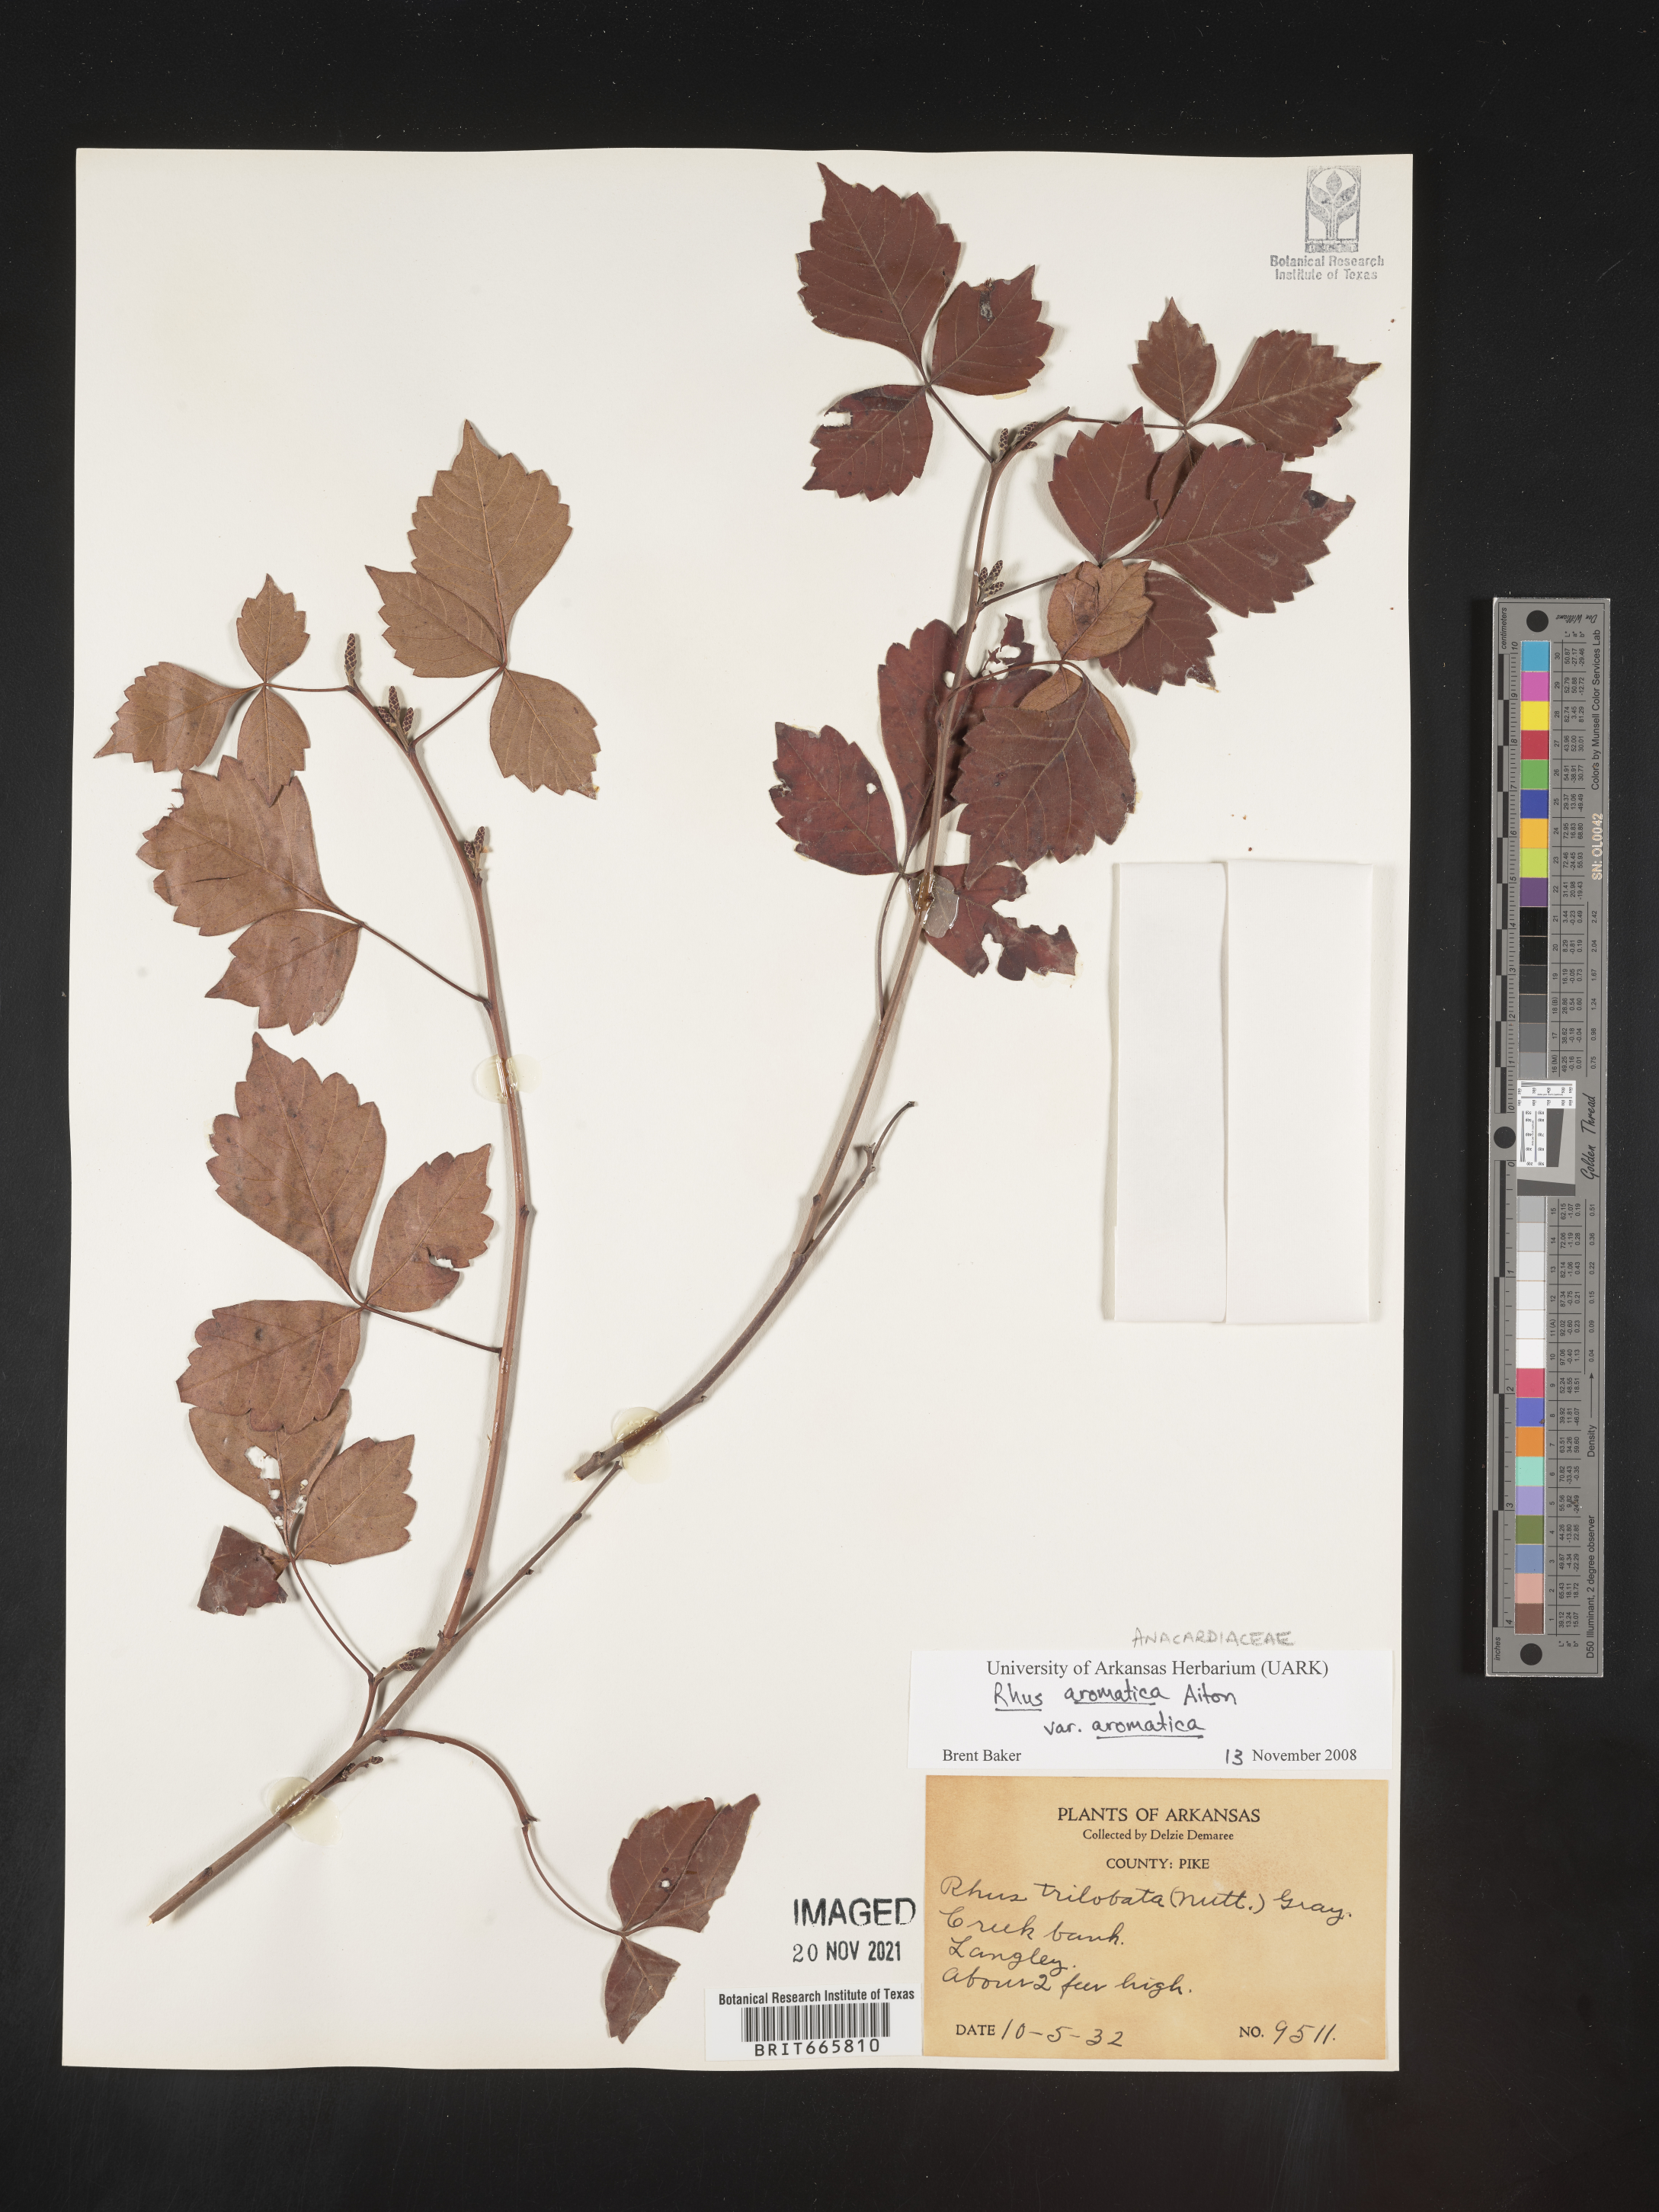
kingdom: Plantae
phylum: Tracheophyta
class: Magnoliopsida
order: Sapindales
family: Anacardiaceae
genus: Rhus
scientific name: Rhus aromatica
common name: Aromatic sumac
